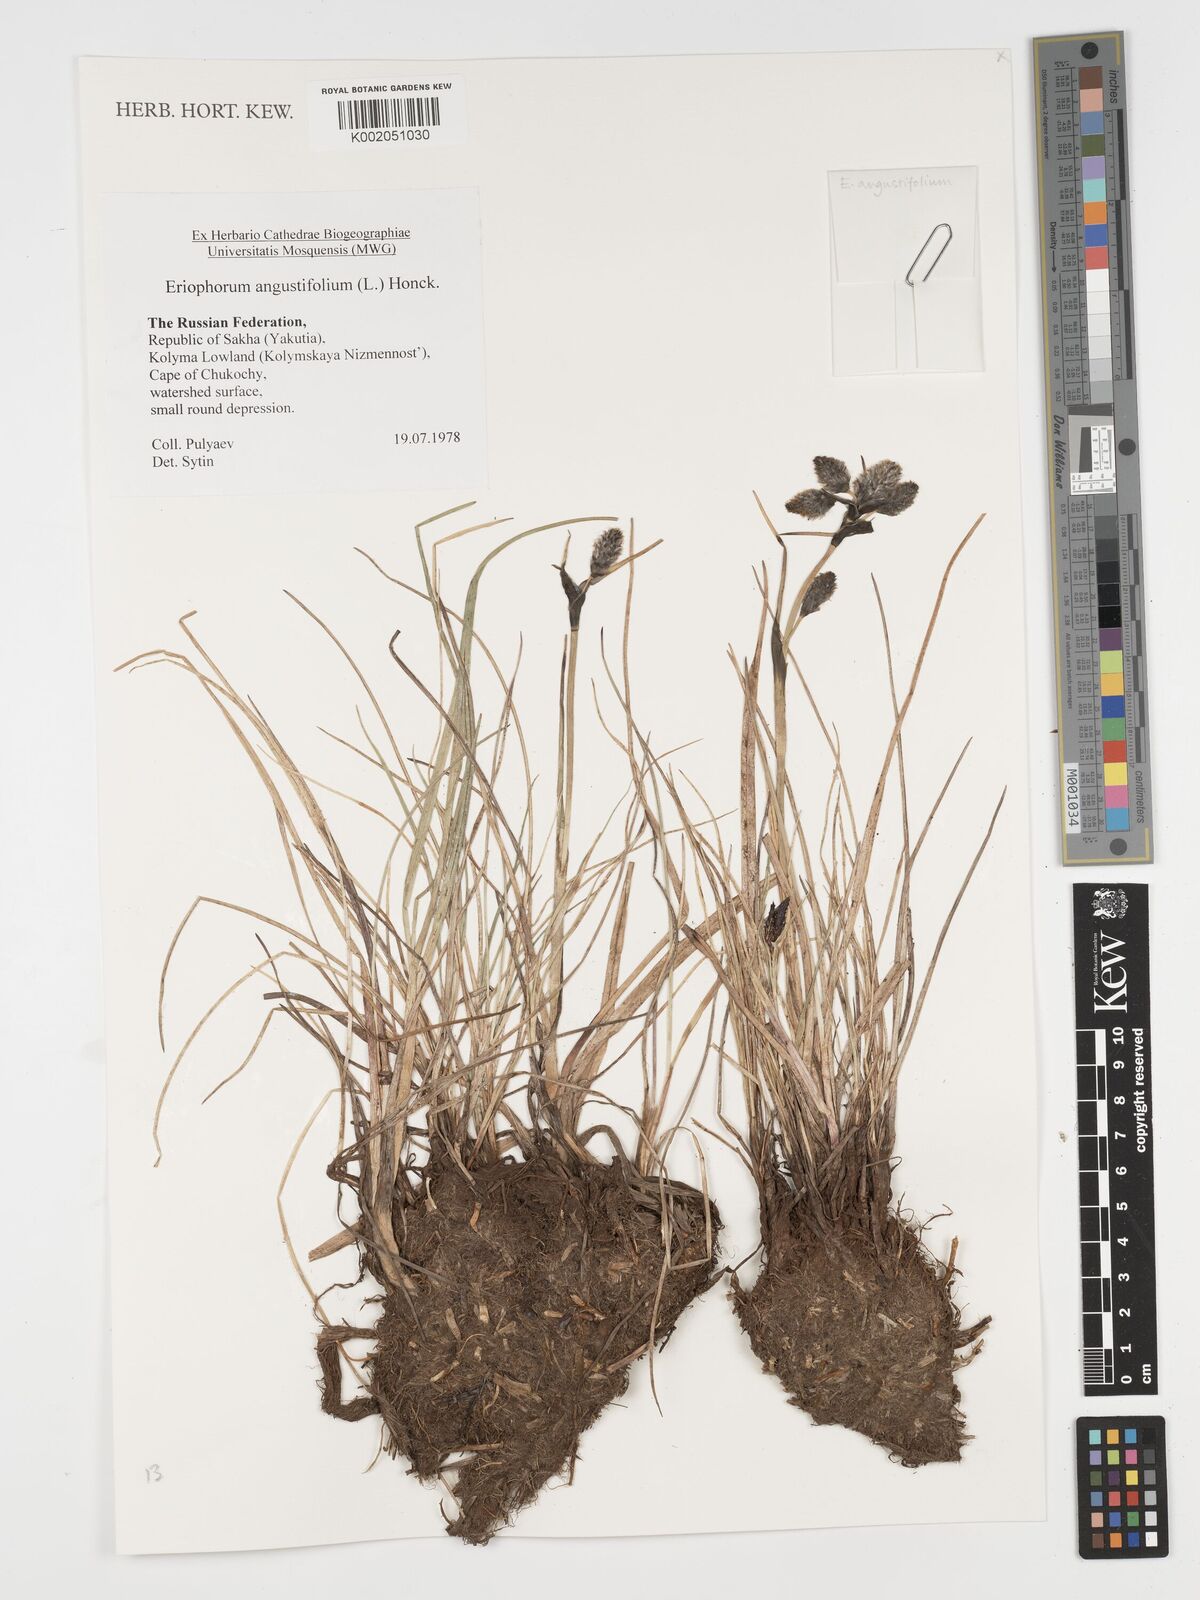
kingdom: Plantae
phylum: Tracheophyta
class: Liliopsida
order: Poales
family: Cyperaceae
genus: Eriophorum
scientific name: Eriophorum angustifolium
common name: Common cottongrass
